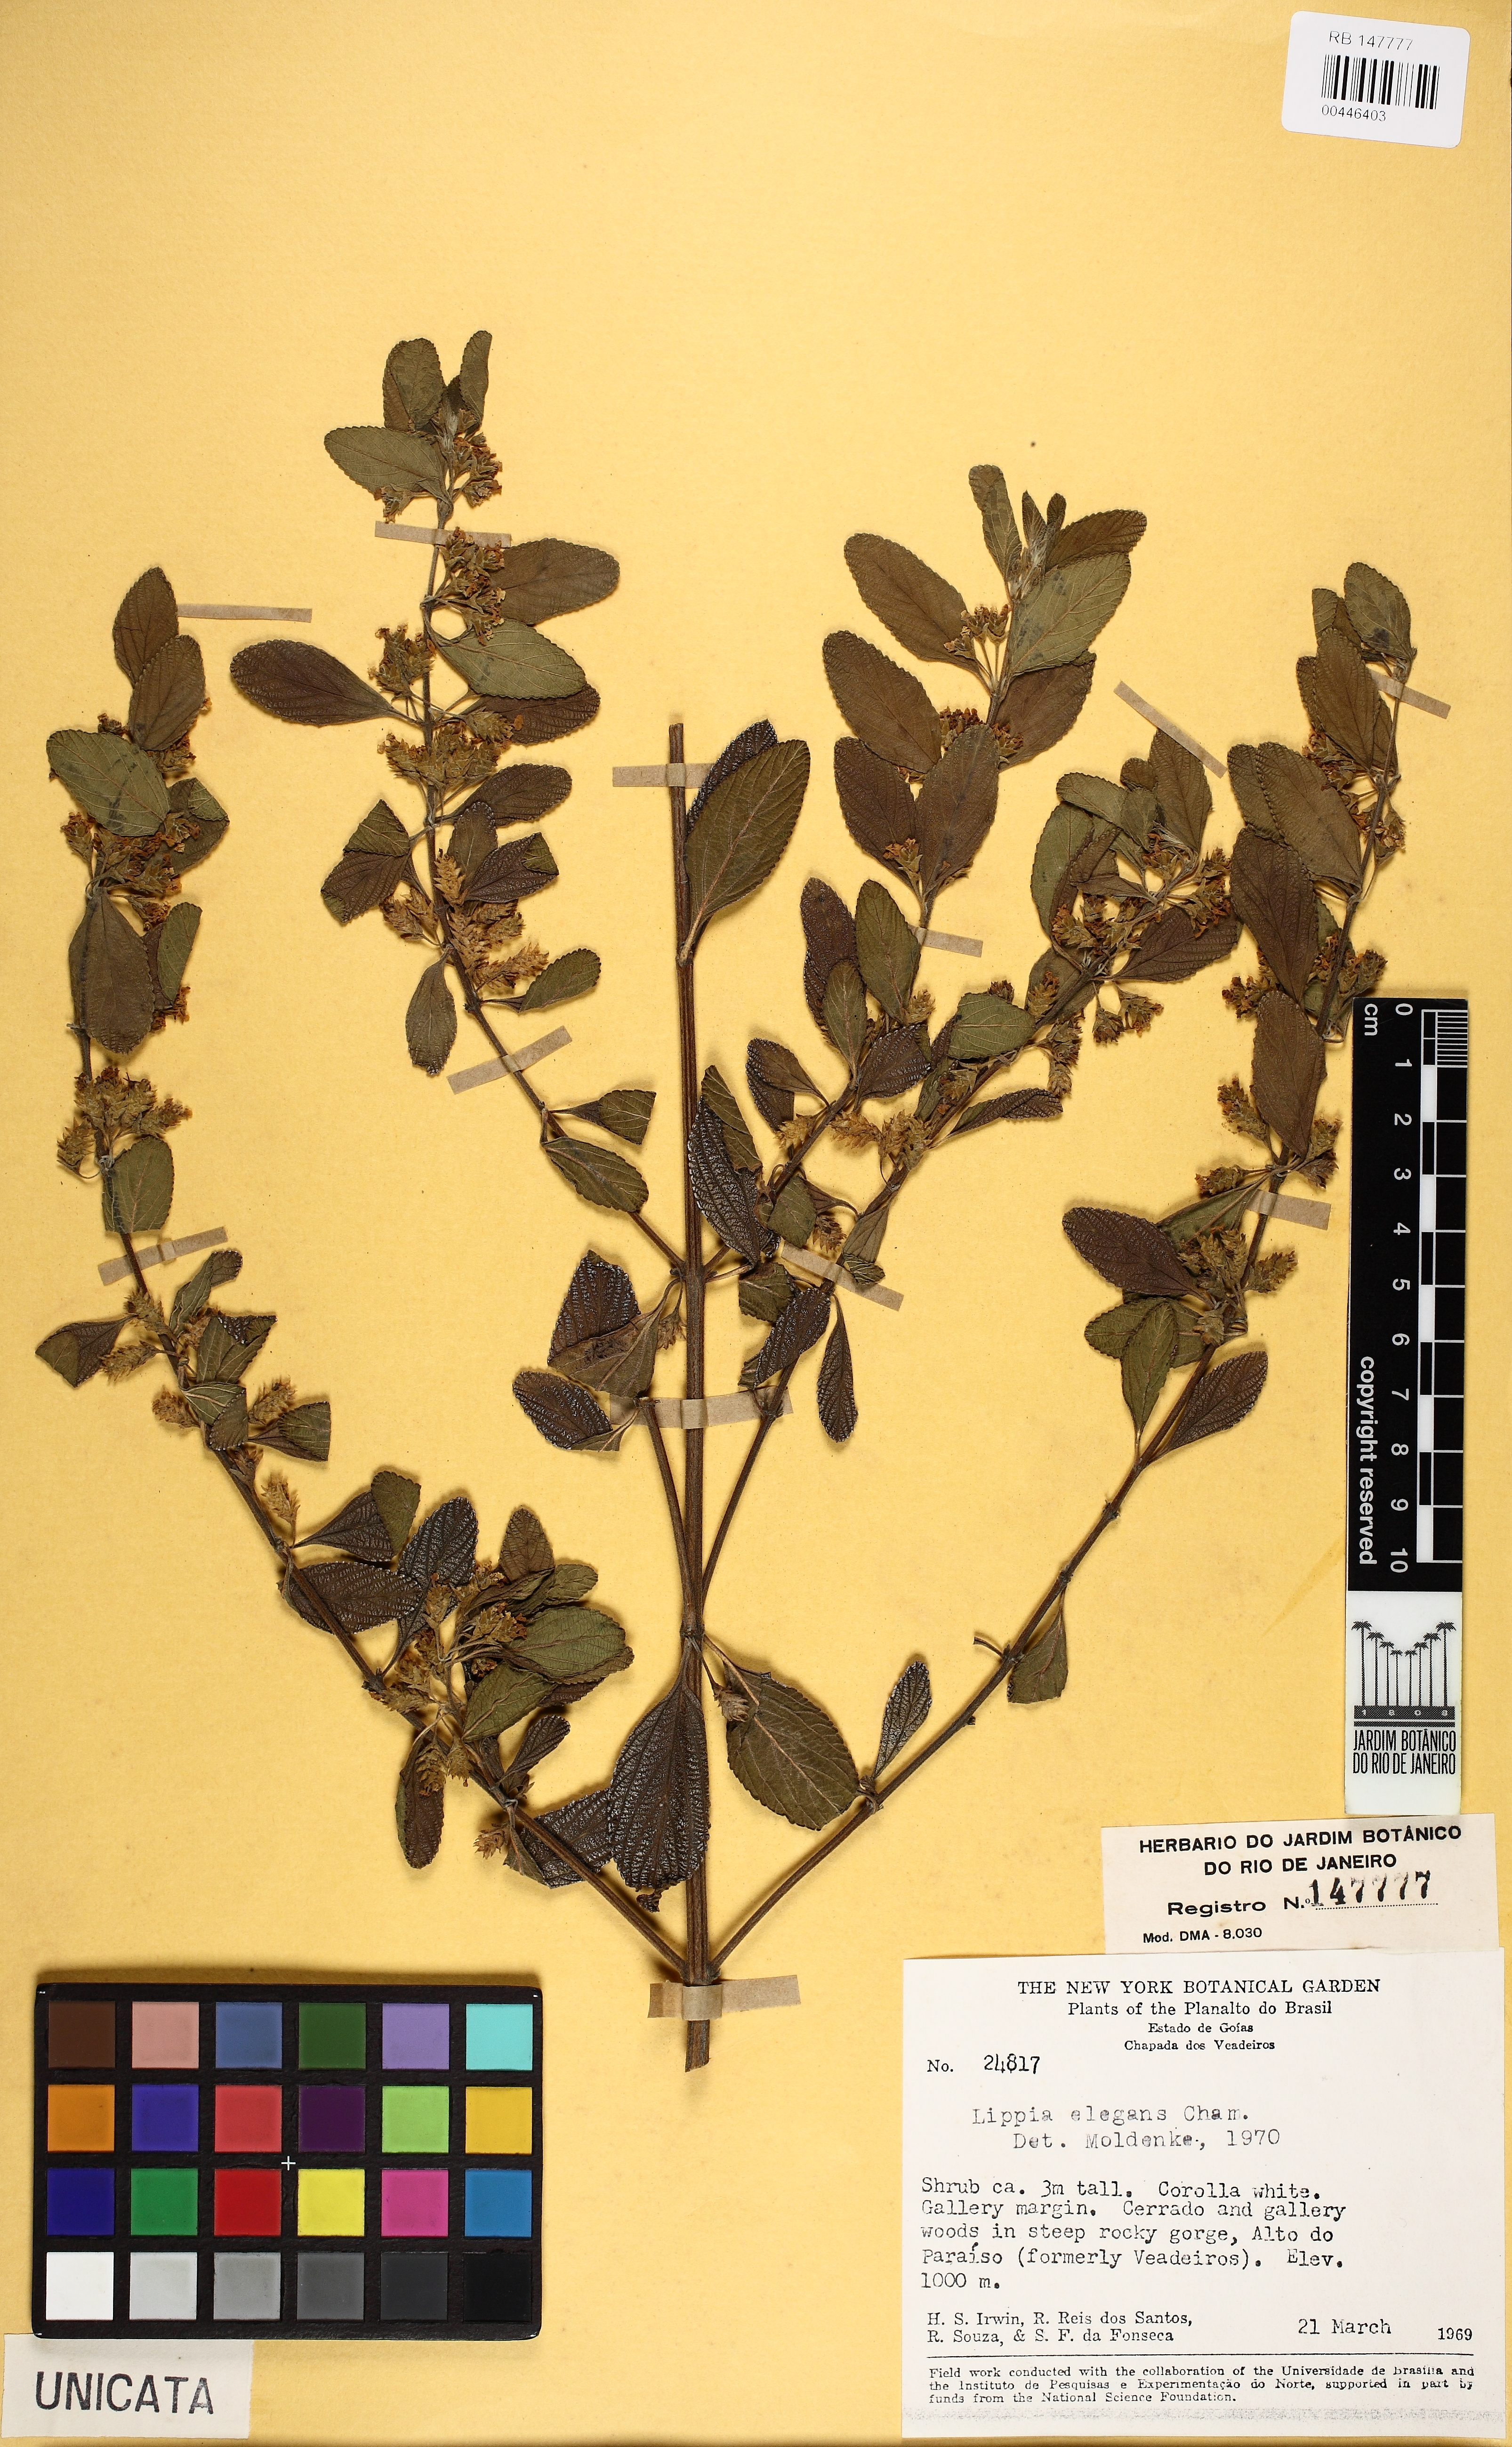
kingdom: Plantae
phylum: Tracheophyta
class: Magnoliopsida
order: Lamiales
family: Verbenaceae
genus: Lippia
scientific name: Lippia origanoides
